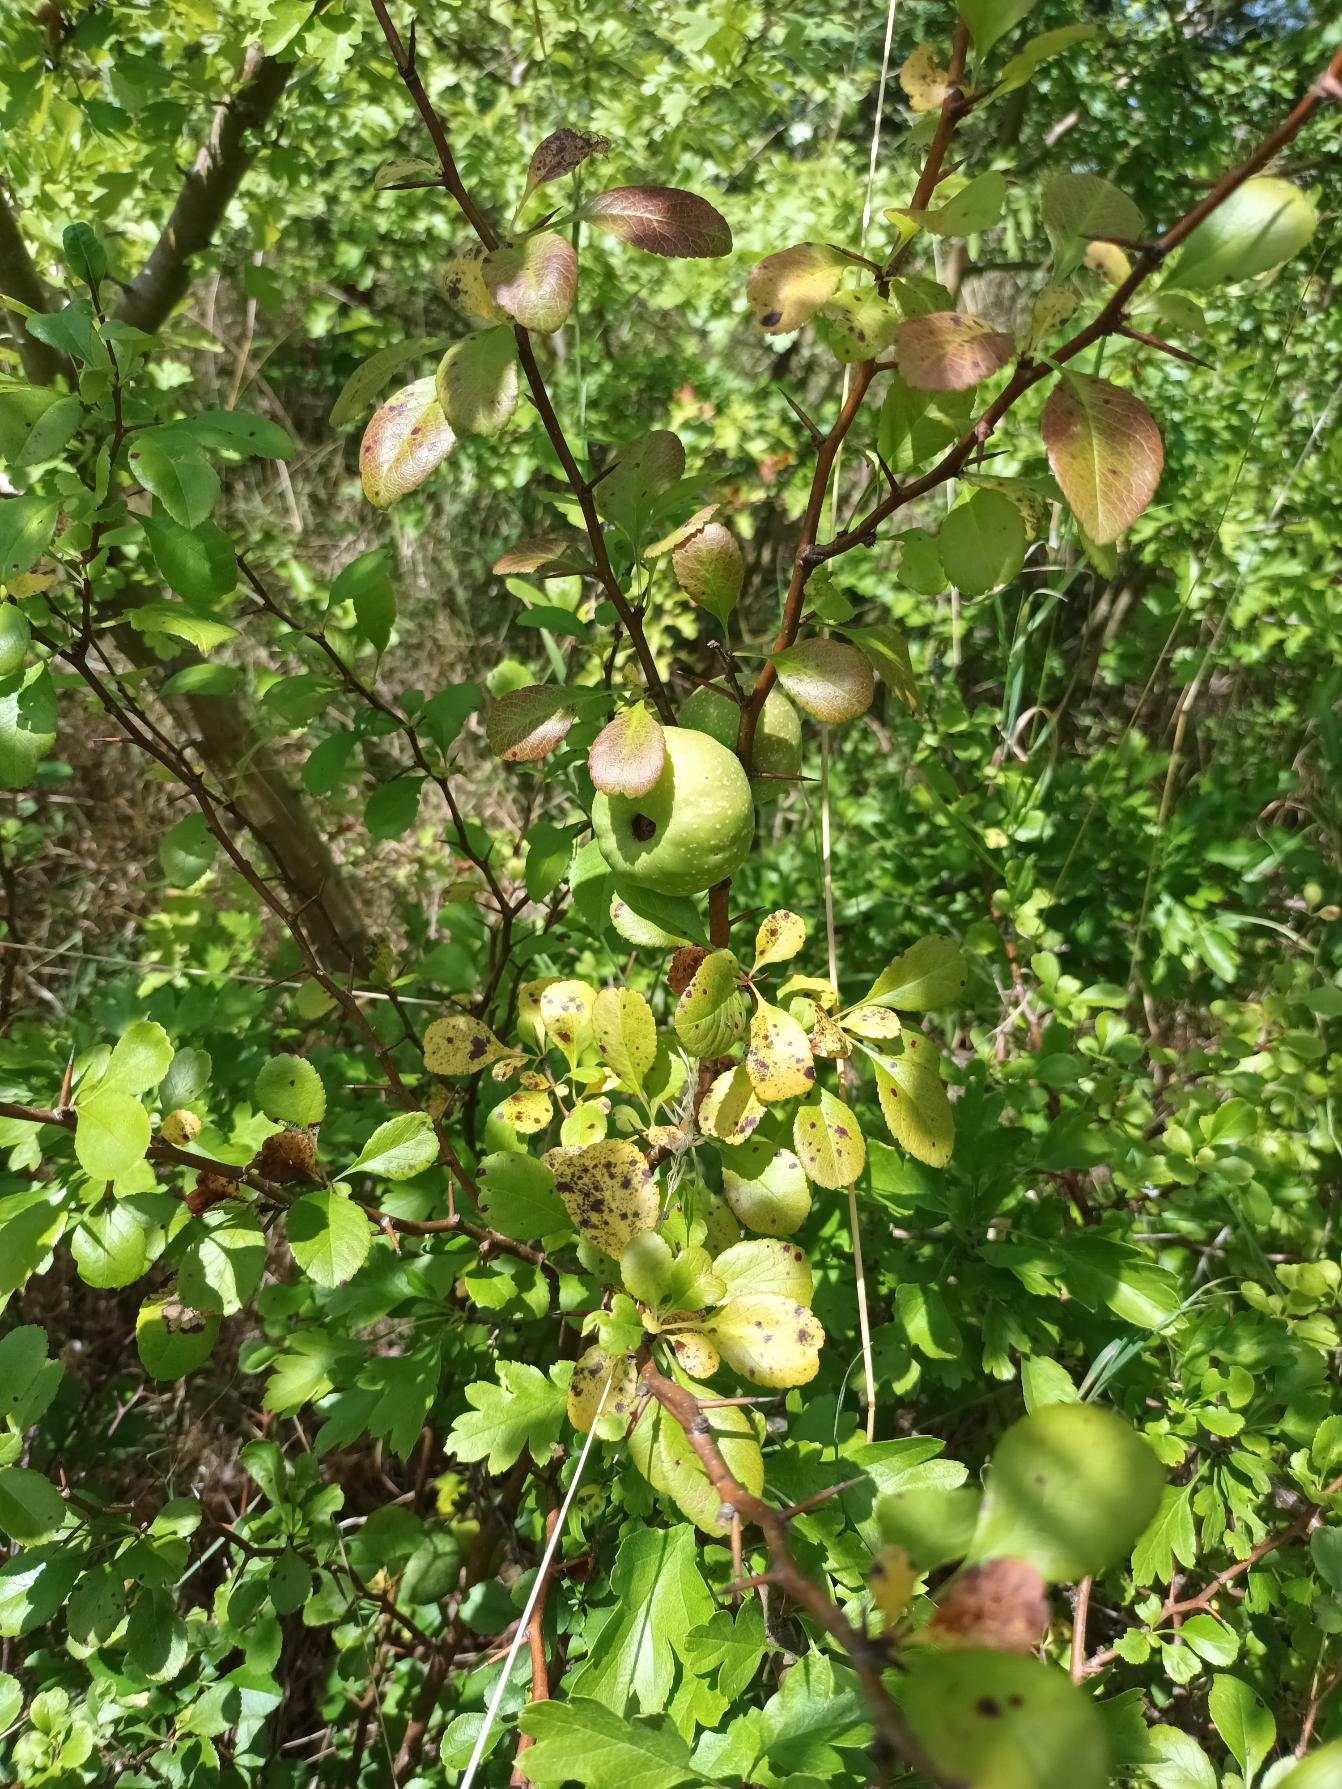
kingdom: Plantae
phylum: Tracheophyta
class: Magnoliopsida
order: Rosales
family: Rosaceae
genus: Chaenomeles
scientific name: Chaenomeles japonica
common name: Lille japankvæde
